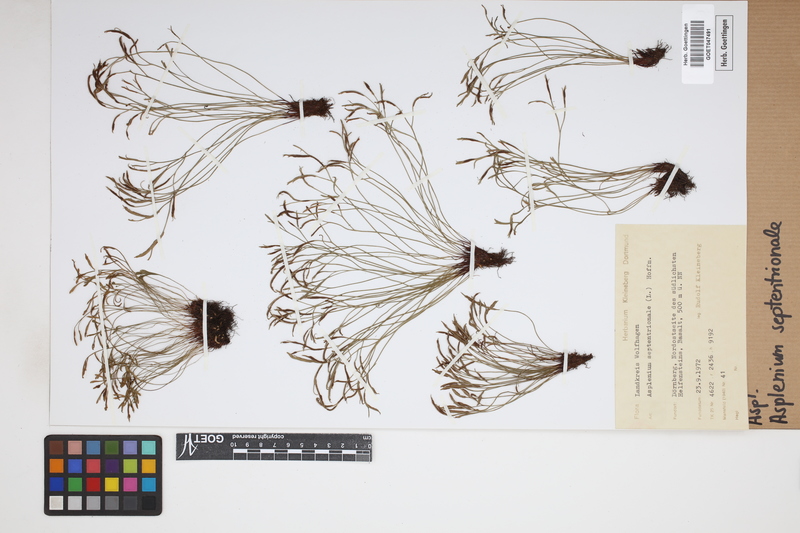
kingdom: Plantae
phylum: Tracheophyta
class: Polypodiopsida
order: Polypodiales
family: Aspleniaceae
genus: Asplenium
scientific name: Asplenium septentrionale
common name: Forked spleenwort
